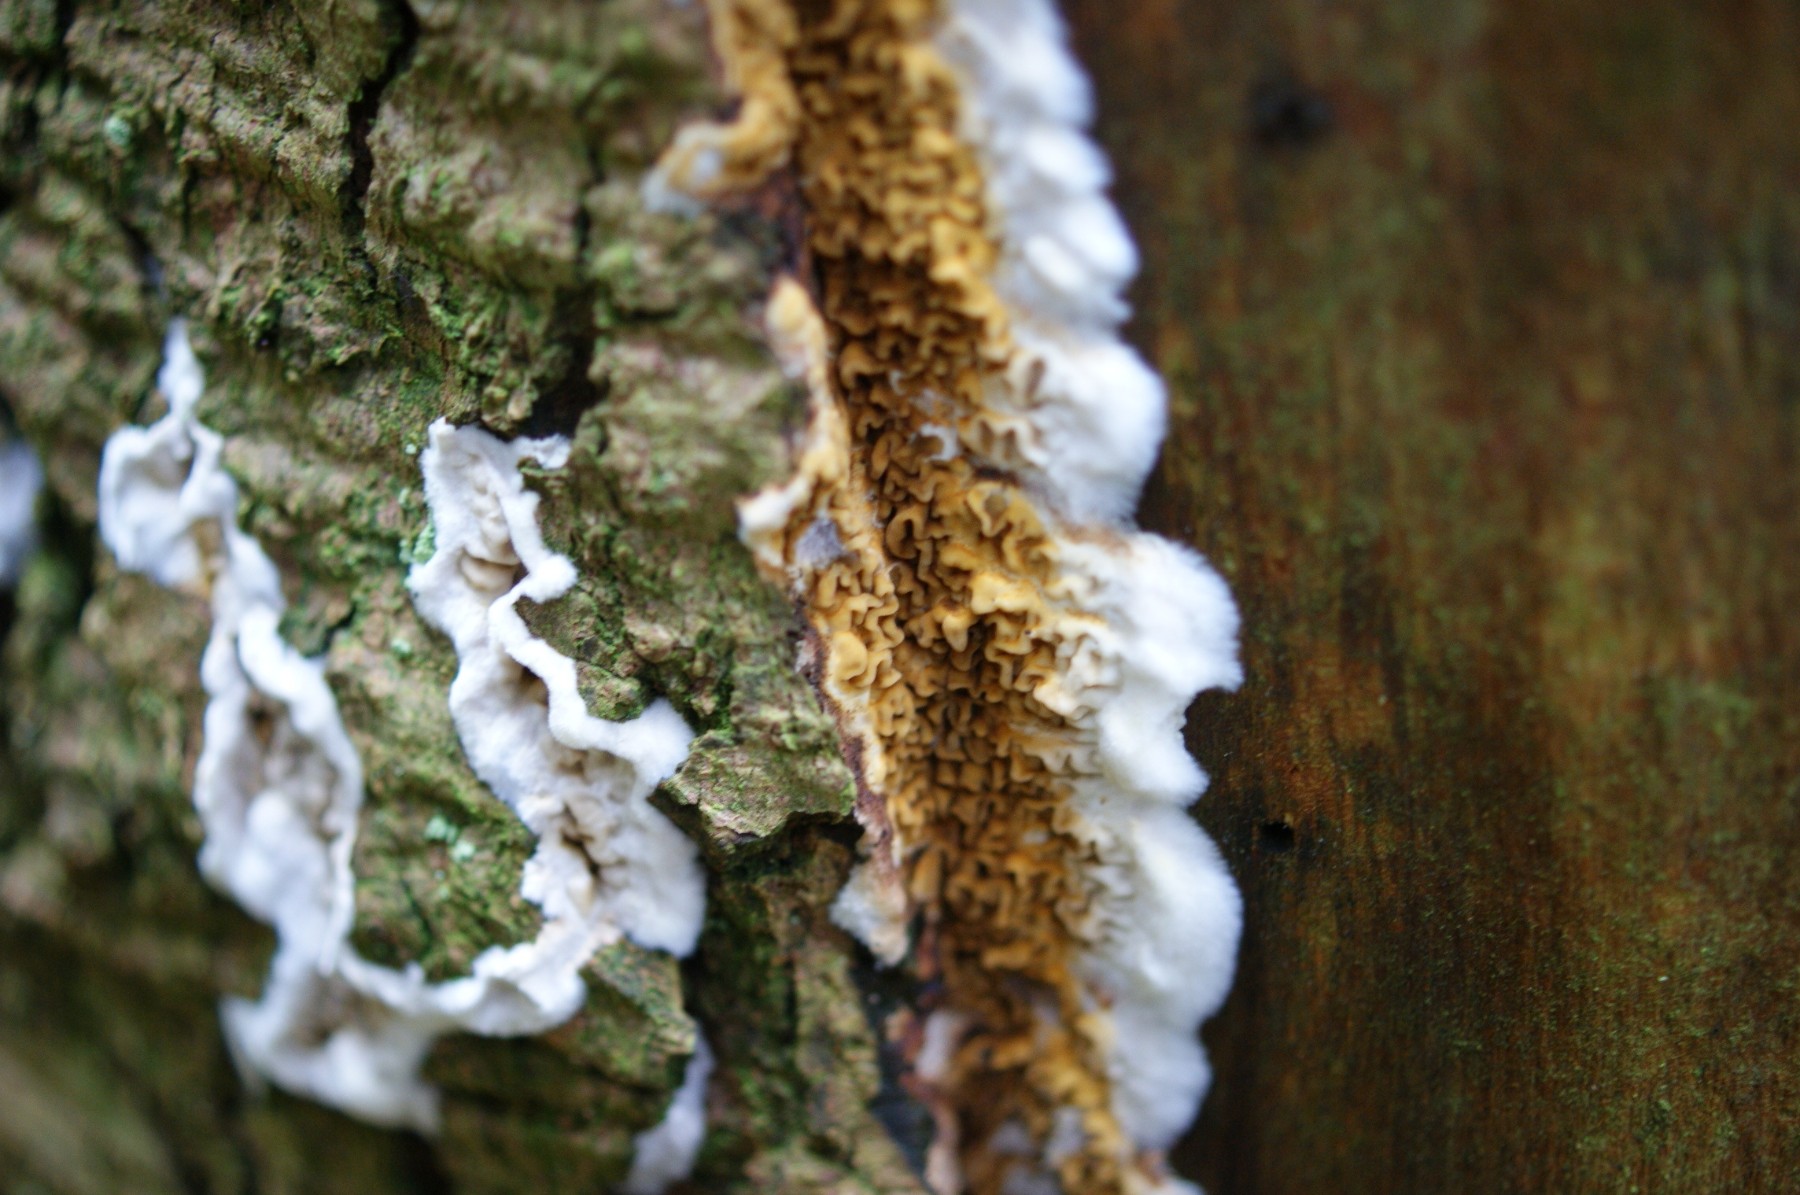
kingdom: Fungi
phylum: Basidiomycota
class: Agaricomycetes
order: Boletales
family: Serpulaceae
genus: Serpula
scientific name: Serpula himantioides
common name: tyndkødet hussvamp
